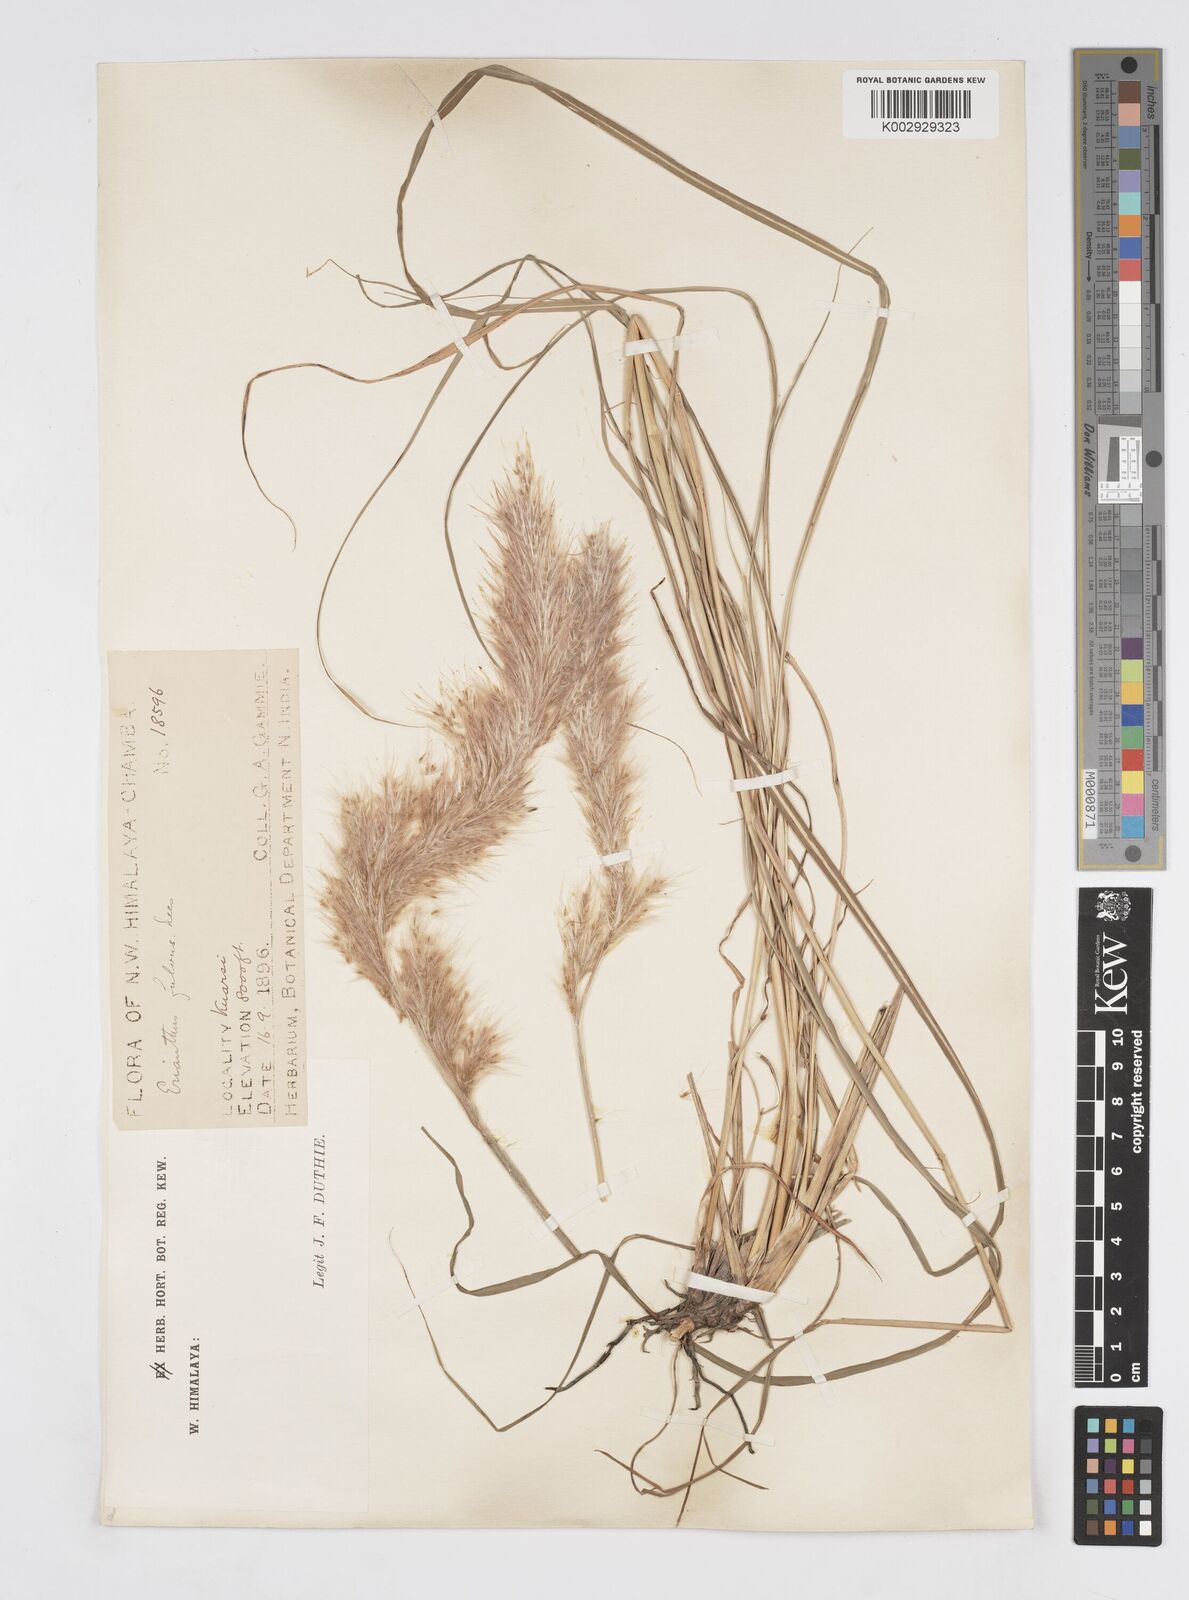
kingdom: Plantae
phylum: Tracheophyta
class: Liliopsida
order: Poales
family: Poaceae
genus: Tripidium
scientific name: Tripidium rufipilum
